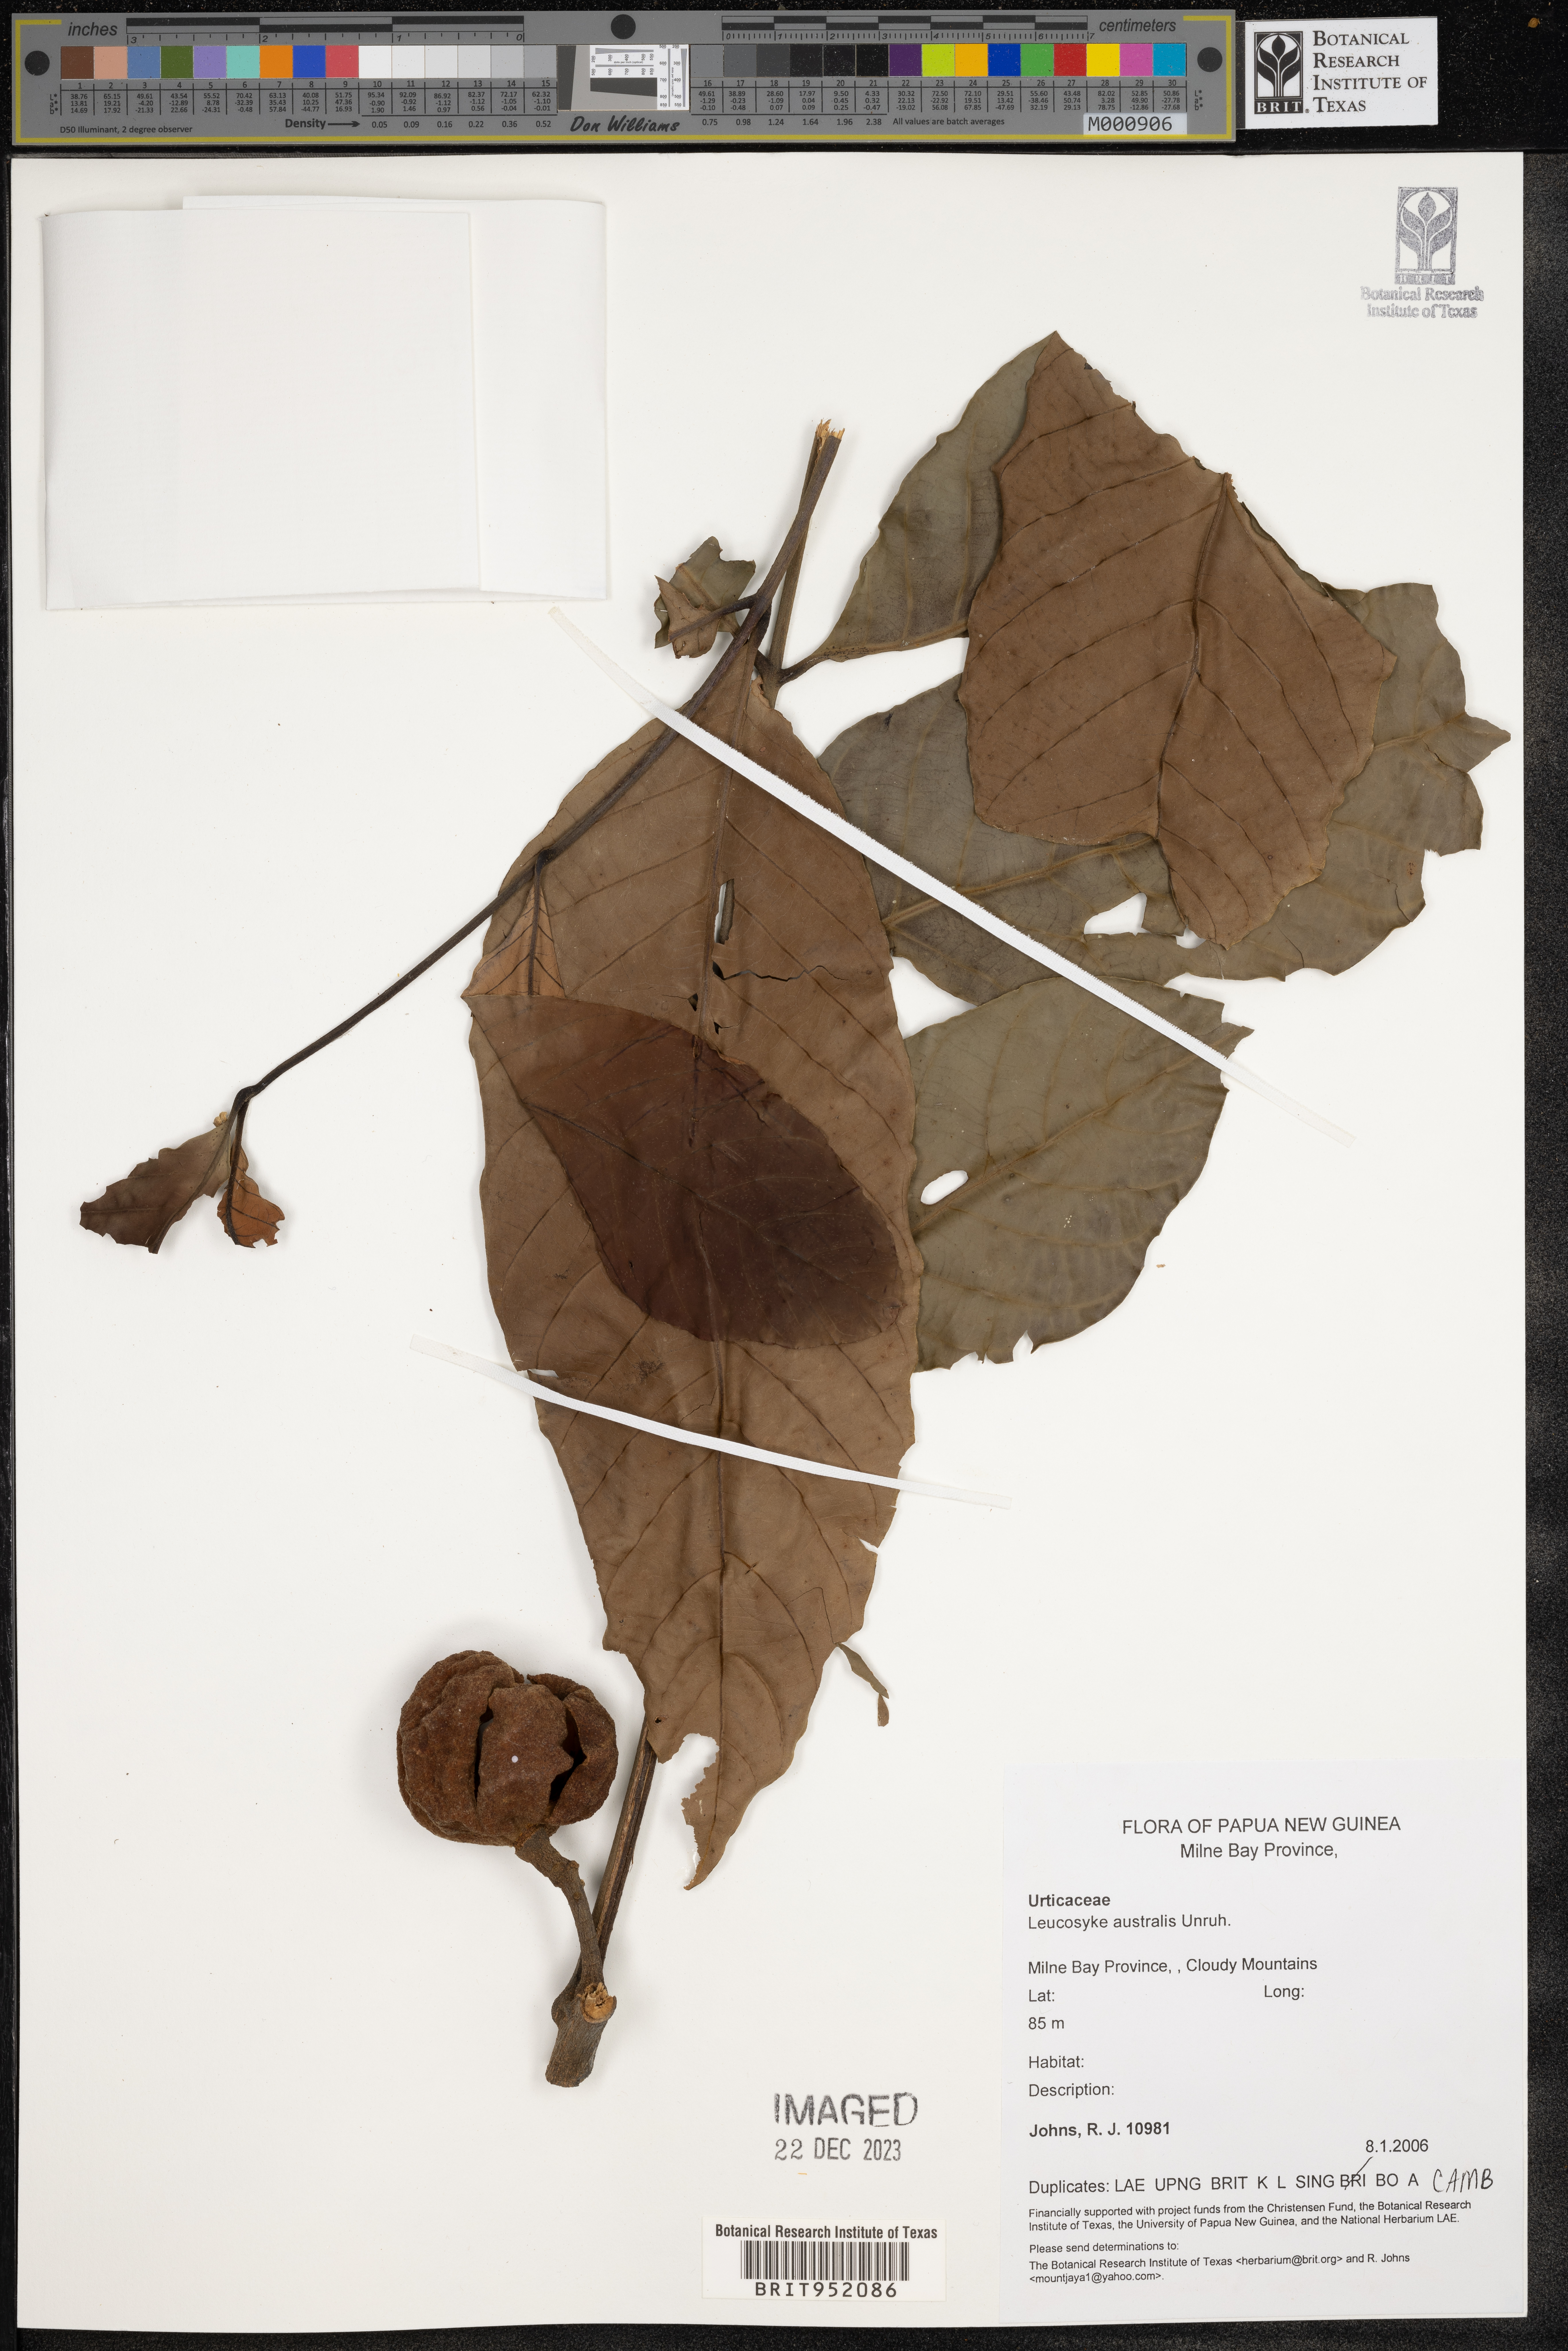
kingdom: Plantae
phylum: Tracheophyta
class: Magnoliopsida
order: Rosales
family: Urticaceae
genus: Leucosyke
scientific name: Leucosyke
